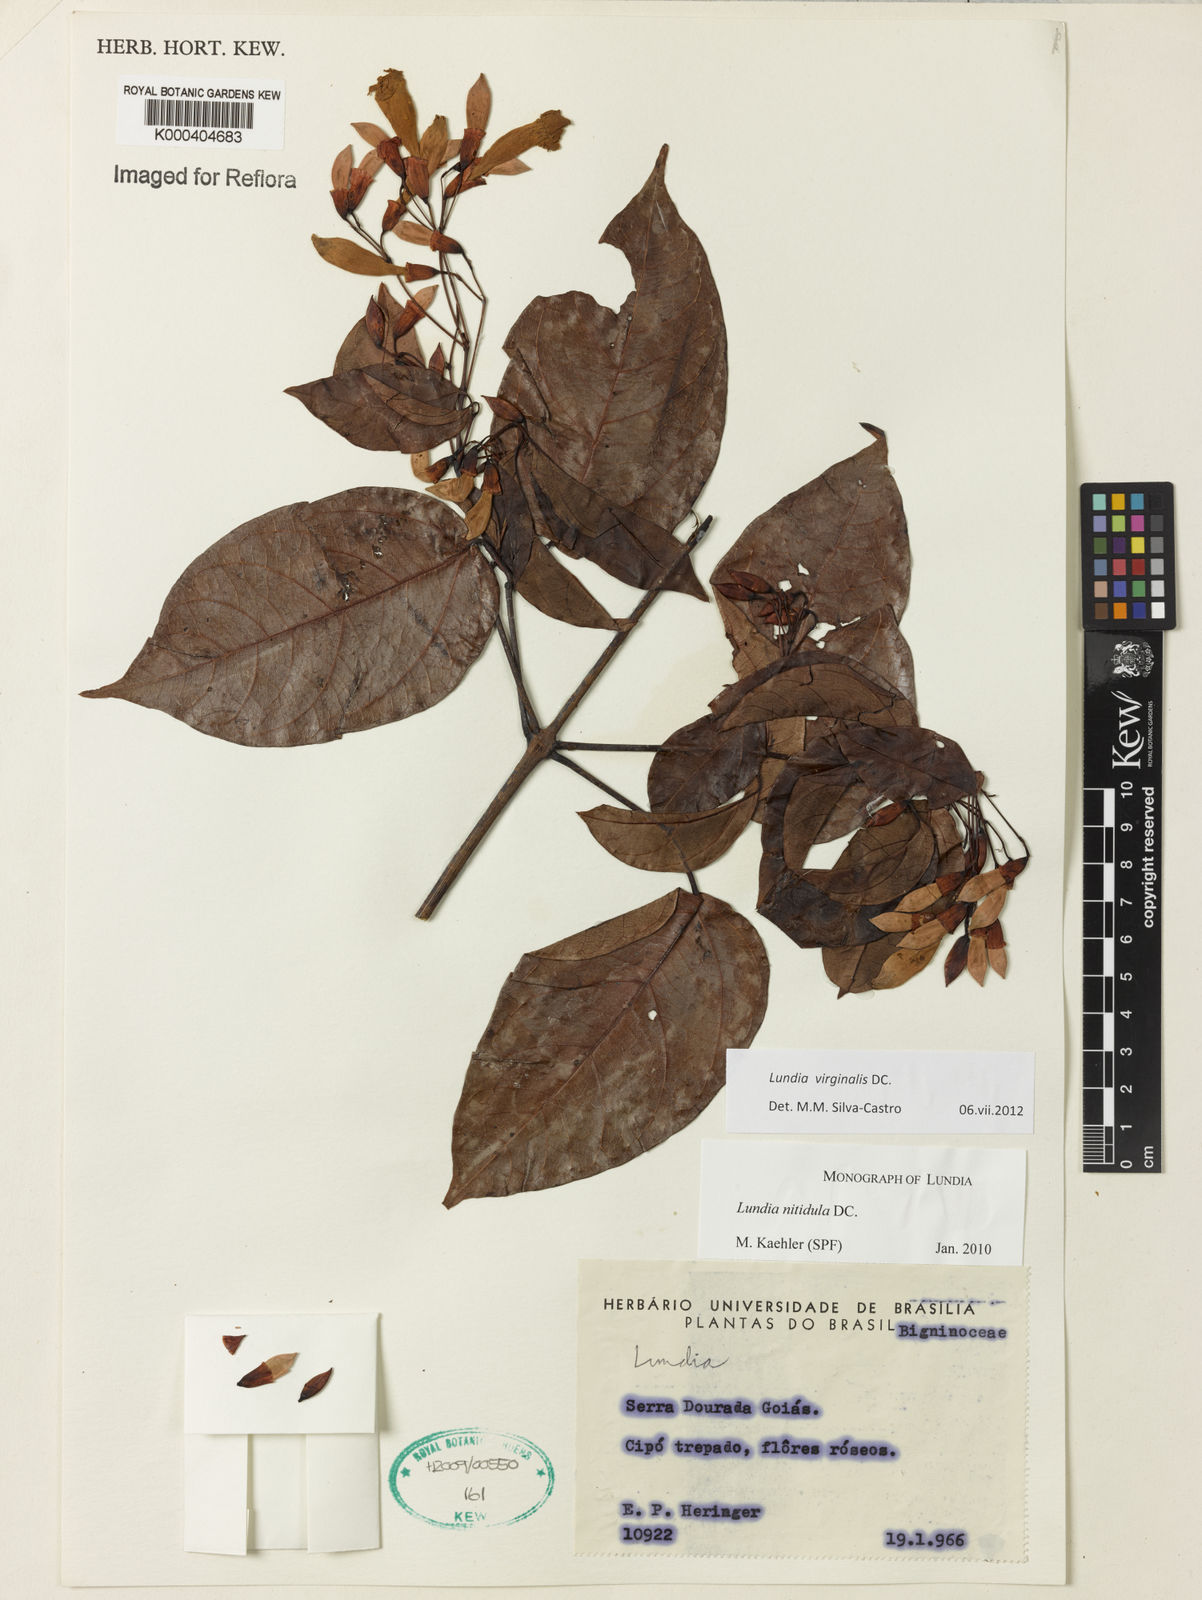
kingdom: Plantae
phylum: Tracheophyta
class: Magnoliopsida
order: Lamiales
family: Bignoniaceae
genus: Lundia
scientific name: Lundia virginalis
